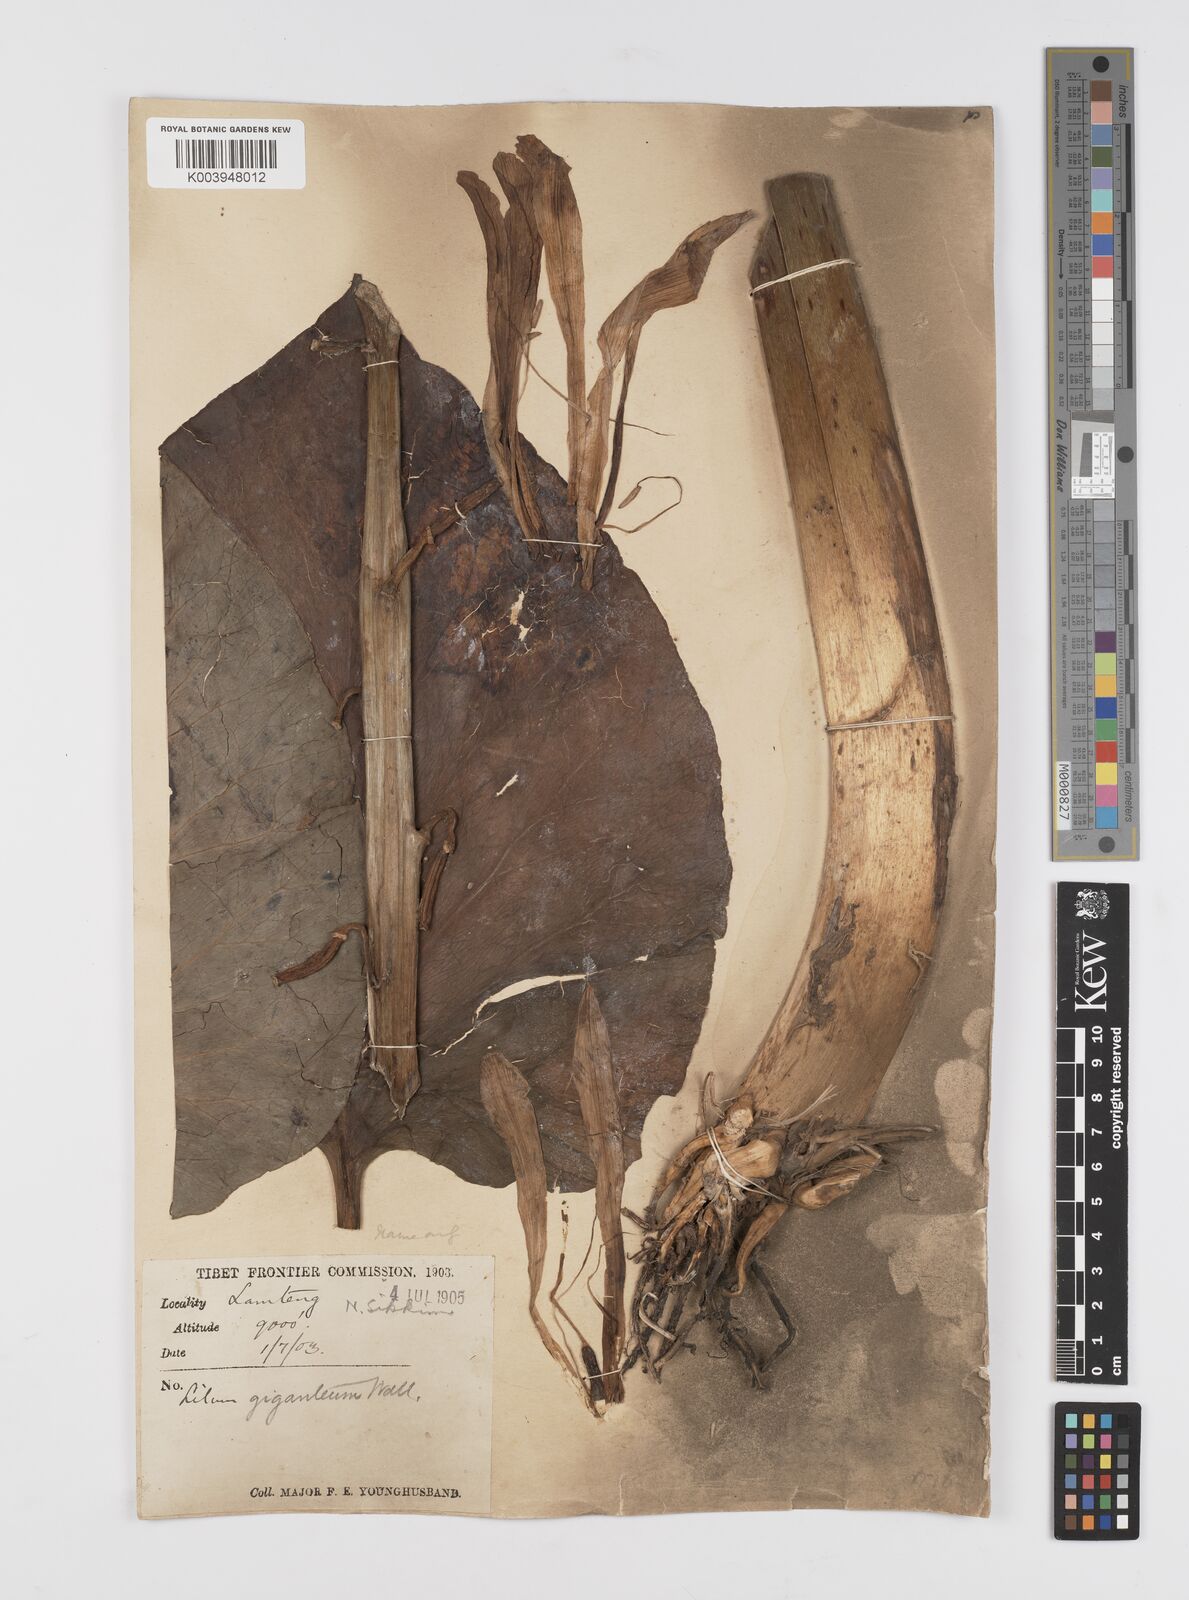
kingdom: Plantae
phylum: Tracheophyta
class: Liliopsida
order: Liliales
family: Liliaceae
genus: Cardiocrinum
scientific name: Cardiocrinum giganteum
